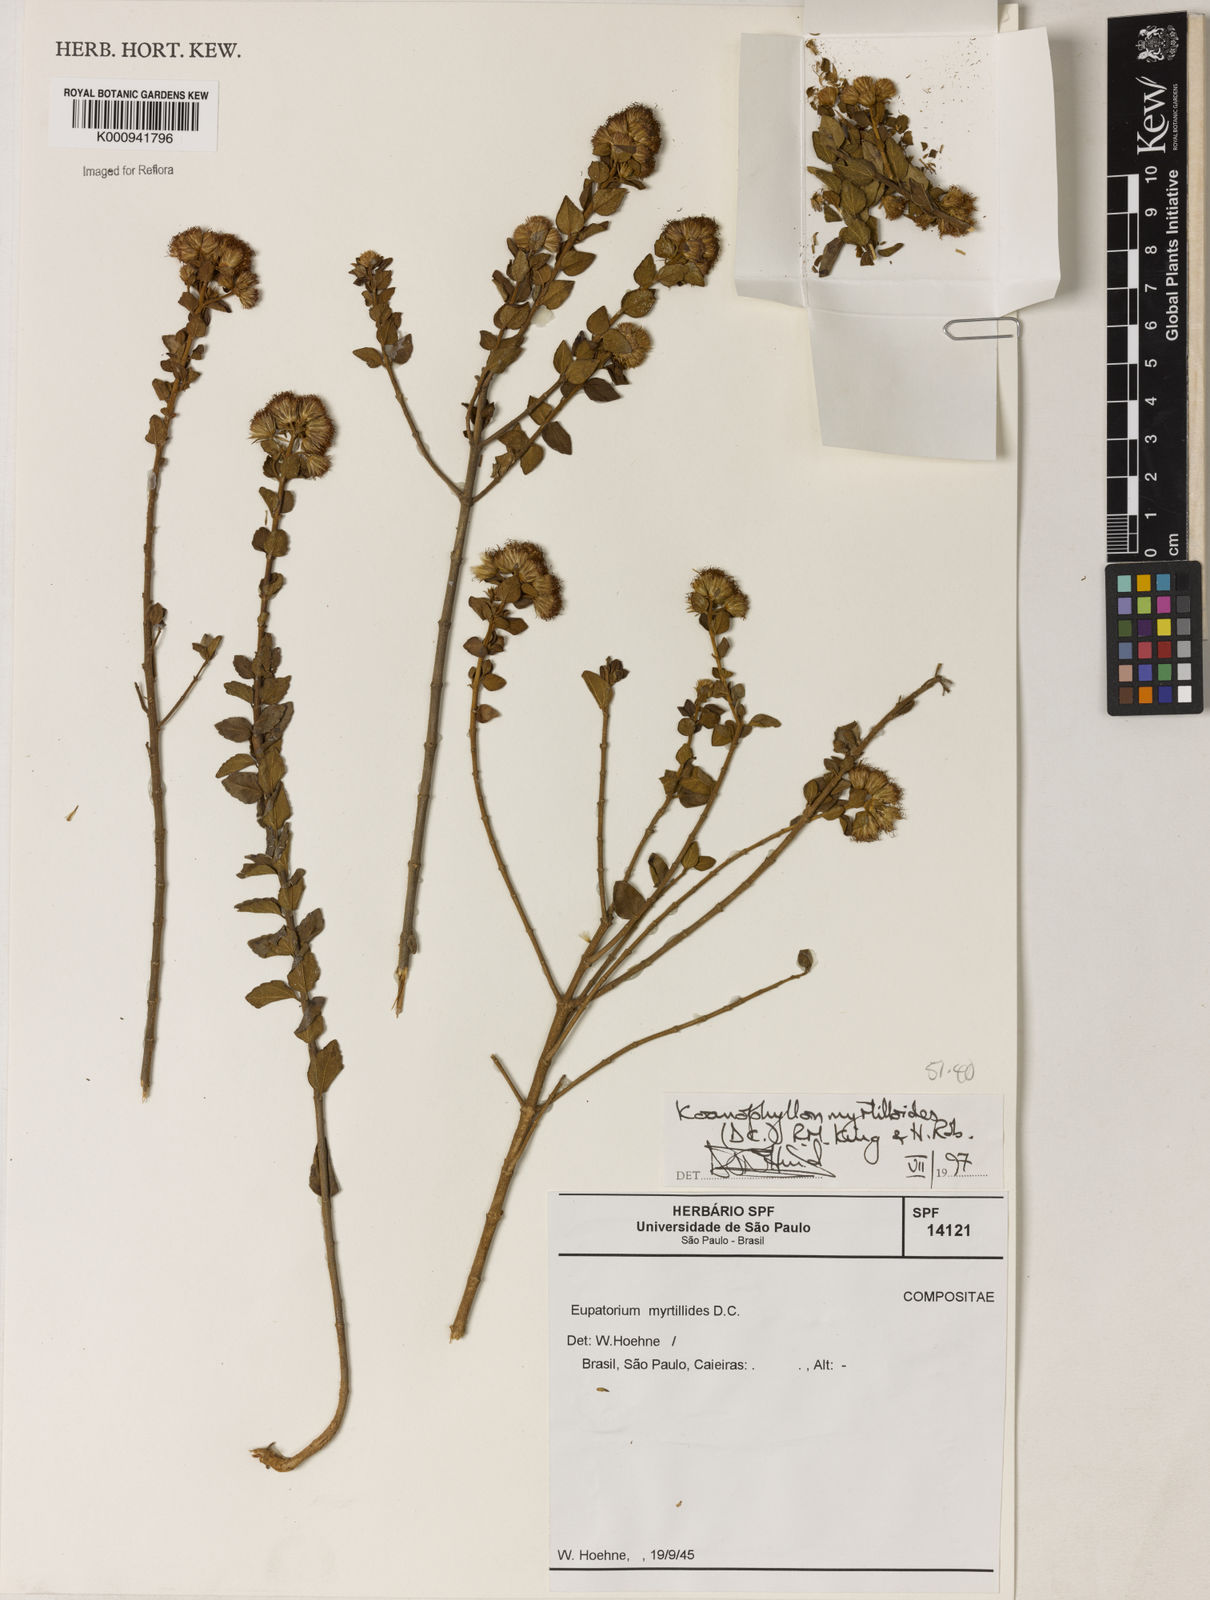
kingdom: Plantae
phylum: Tracheophyta
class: Magnoliopsida
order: Asterales
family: Asteraceae
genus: Koanophyllon
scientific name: Koanophyllon myrtilloides
